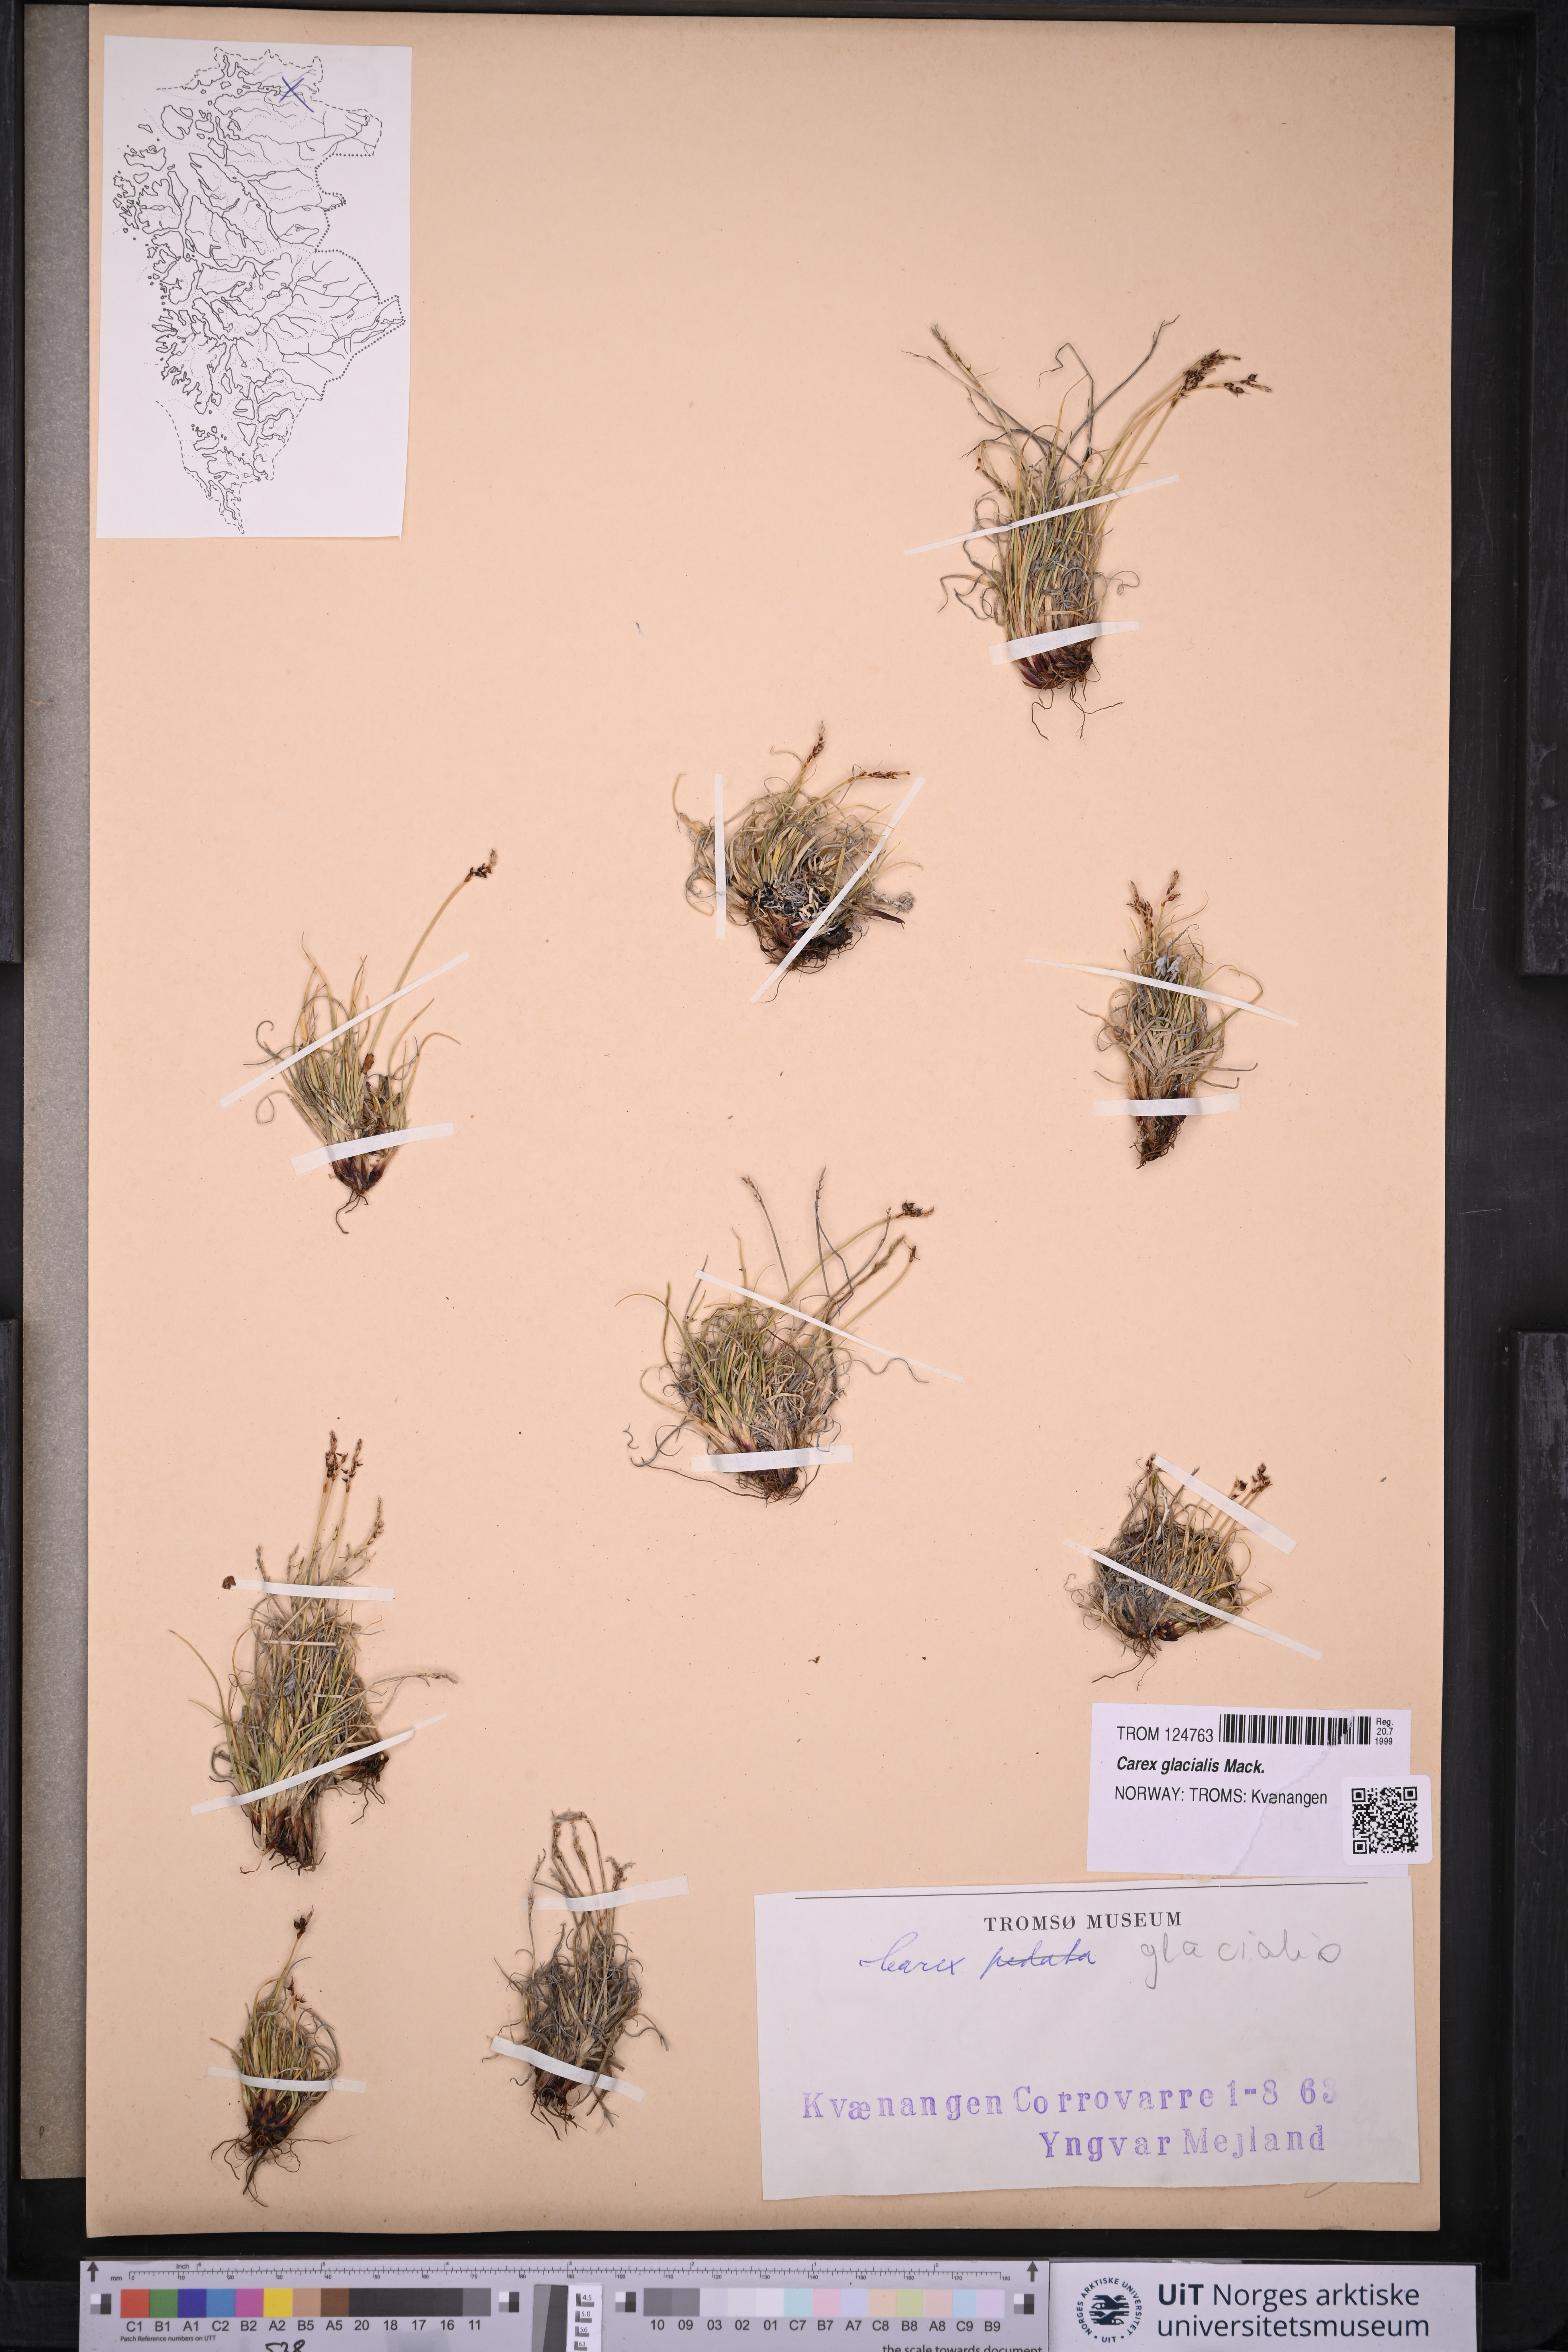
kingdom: Plantae
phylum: Tracheophyta
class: Liliopsida
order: Poales
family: Cyperaceae
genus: Carex
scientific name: Carex glacialis
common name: Newfoundland sedge
